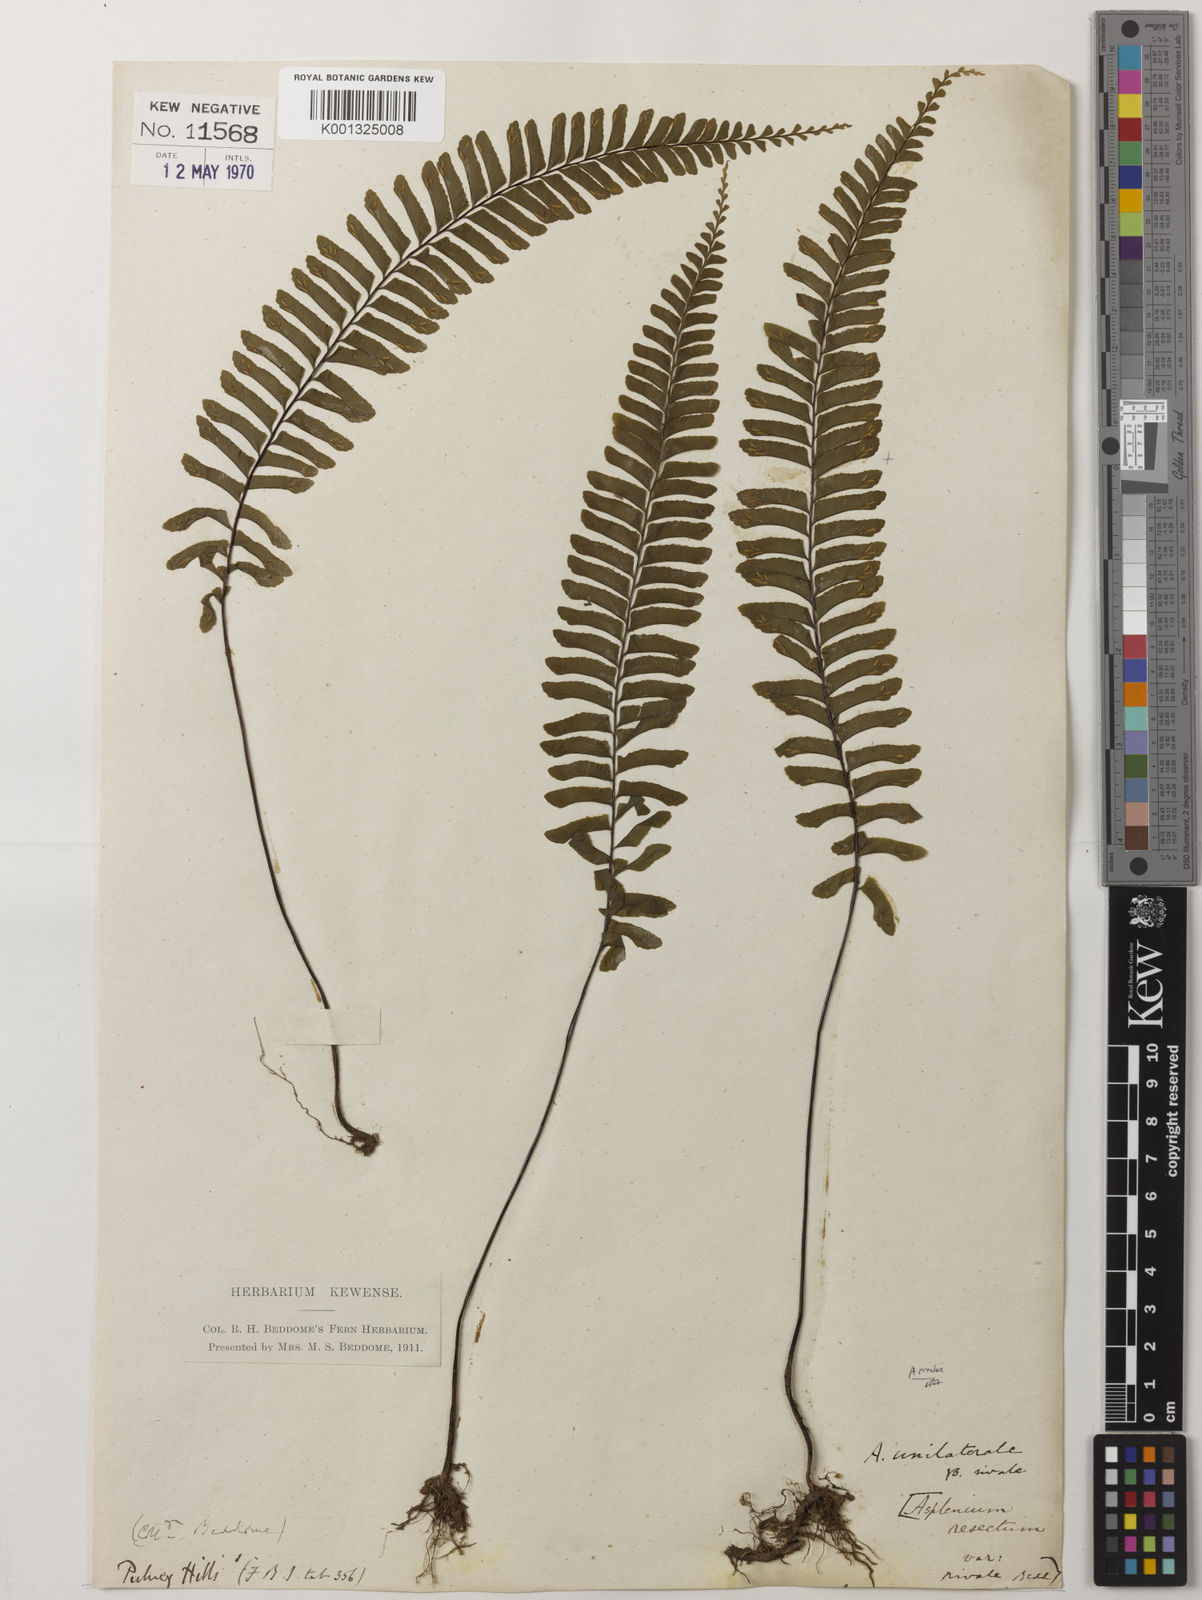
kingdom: Plantae
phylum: Tracheophyta
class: Polypodiopsida
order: Polypodiales
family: Aspleniaceae
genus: Hymenasplenium
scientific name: Hymenasplenium rivulare
